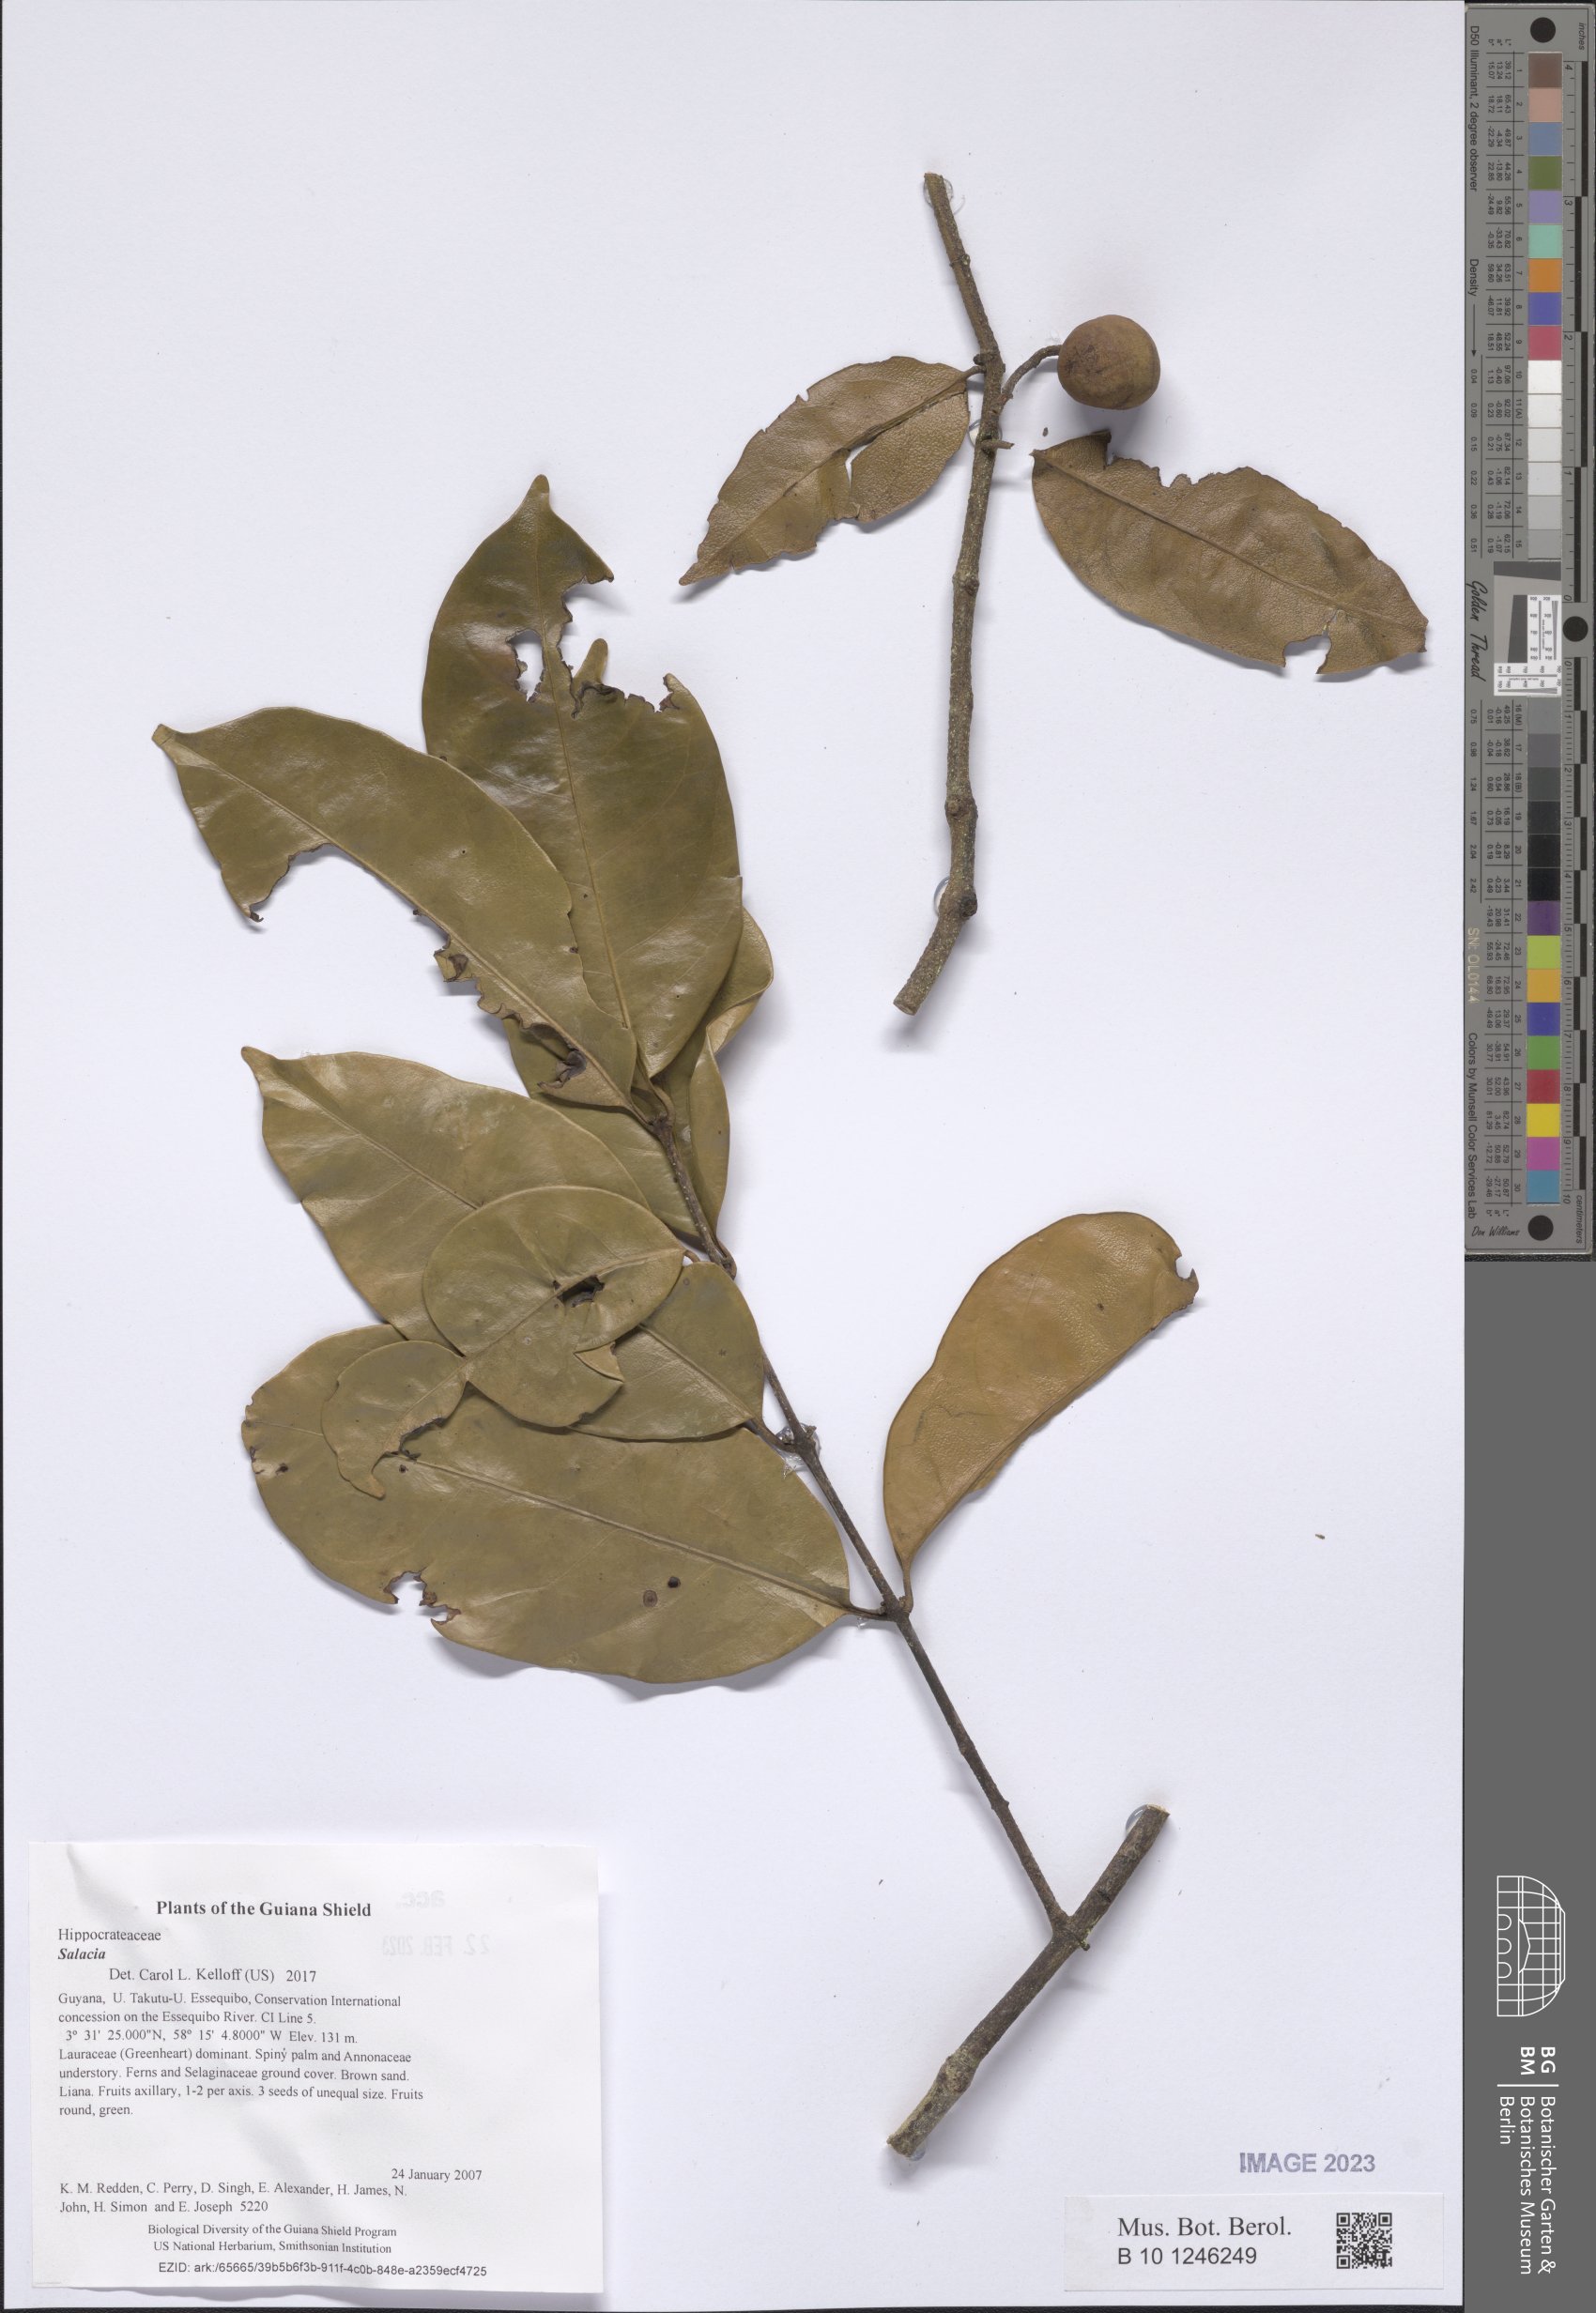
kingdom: Plantae
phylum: Tracheophyta
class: Magnoliopsida
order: Celastrales
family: Celastraceae
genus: Salacia
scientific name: Salacia
